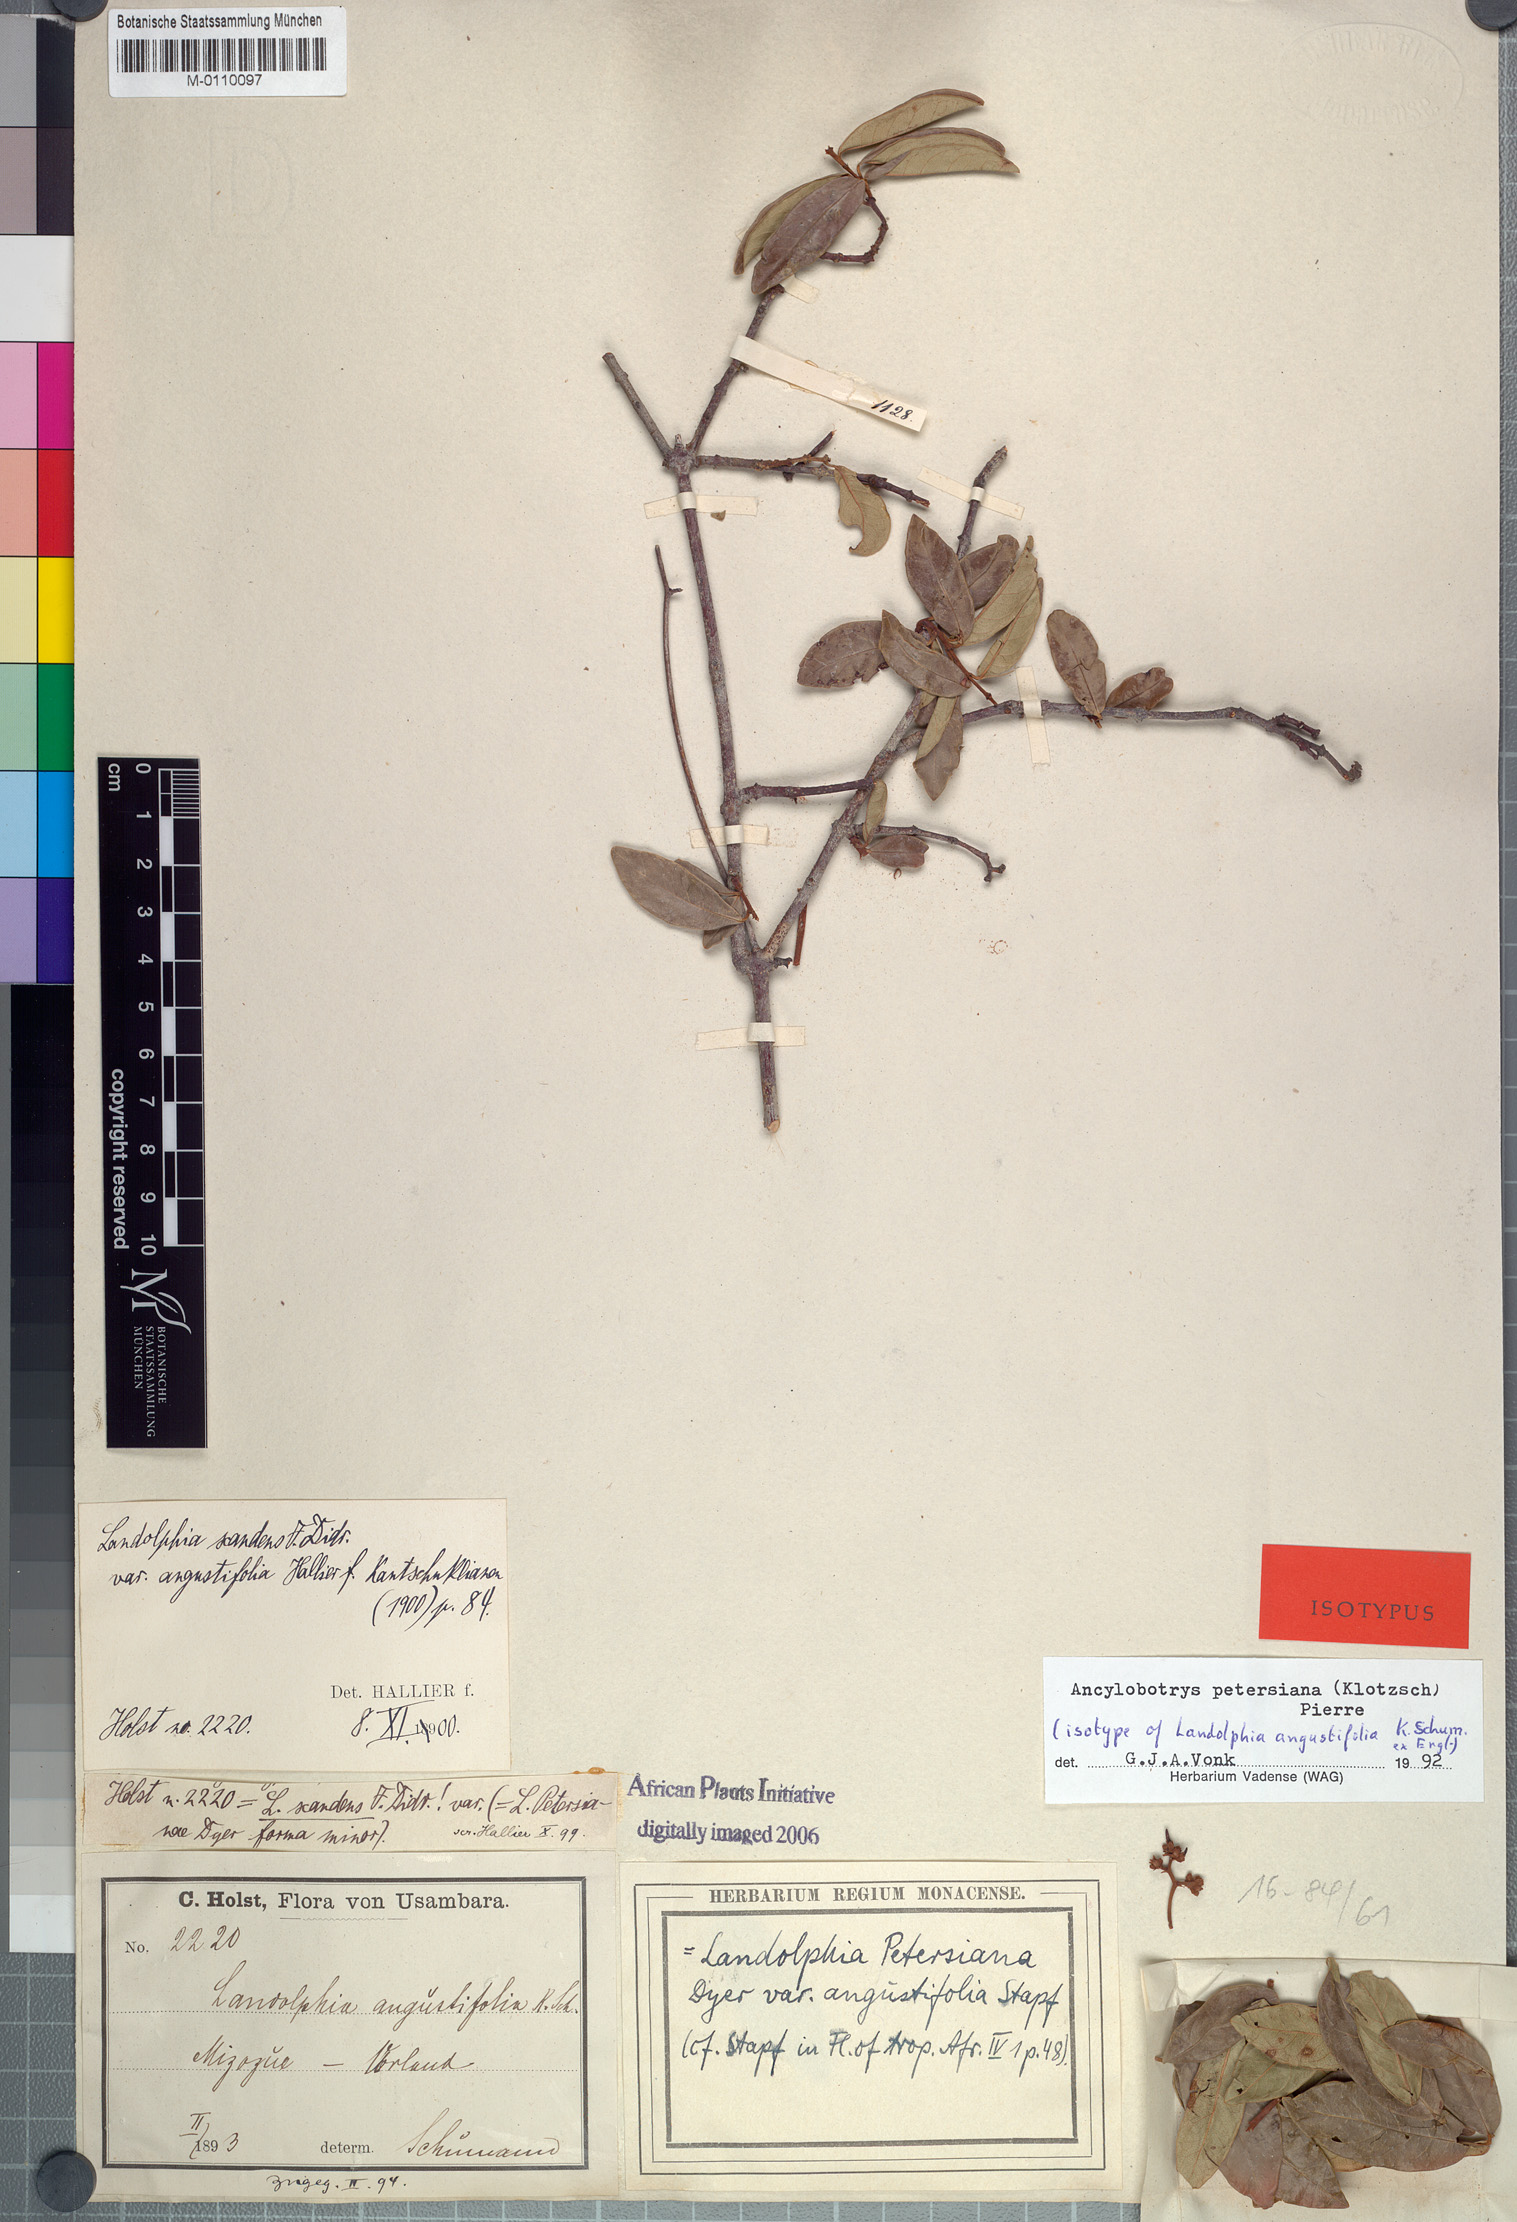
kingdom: Plantae
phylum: Tracheophyta
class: Magnoliopsida
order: Gentianales
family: Apocynaceae
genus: Ancylobotrys
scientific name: Ancylobotrys petersiana
